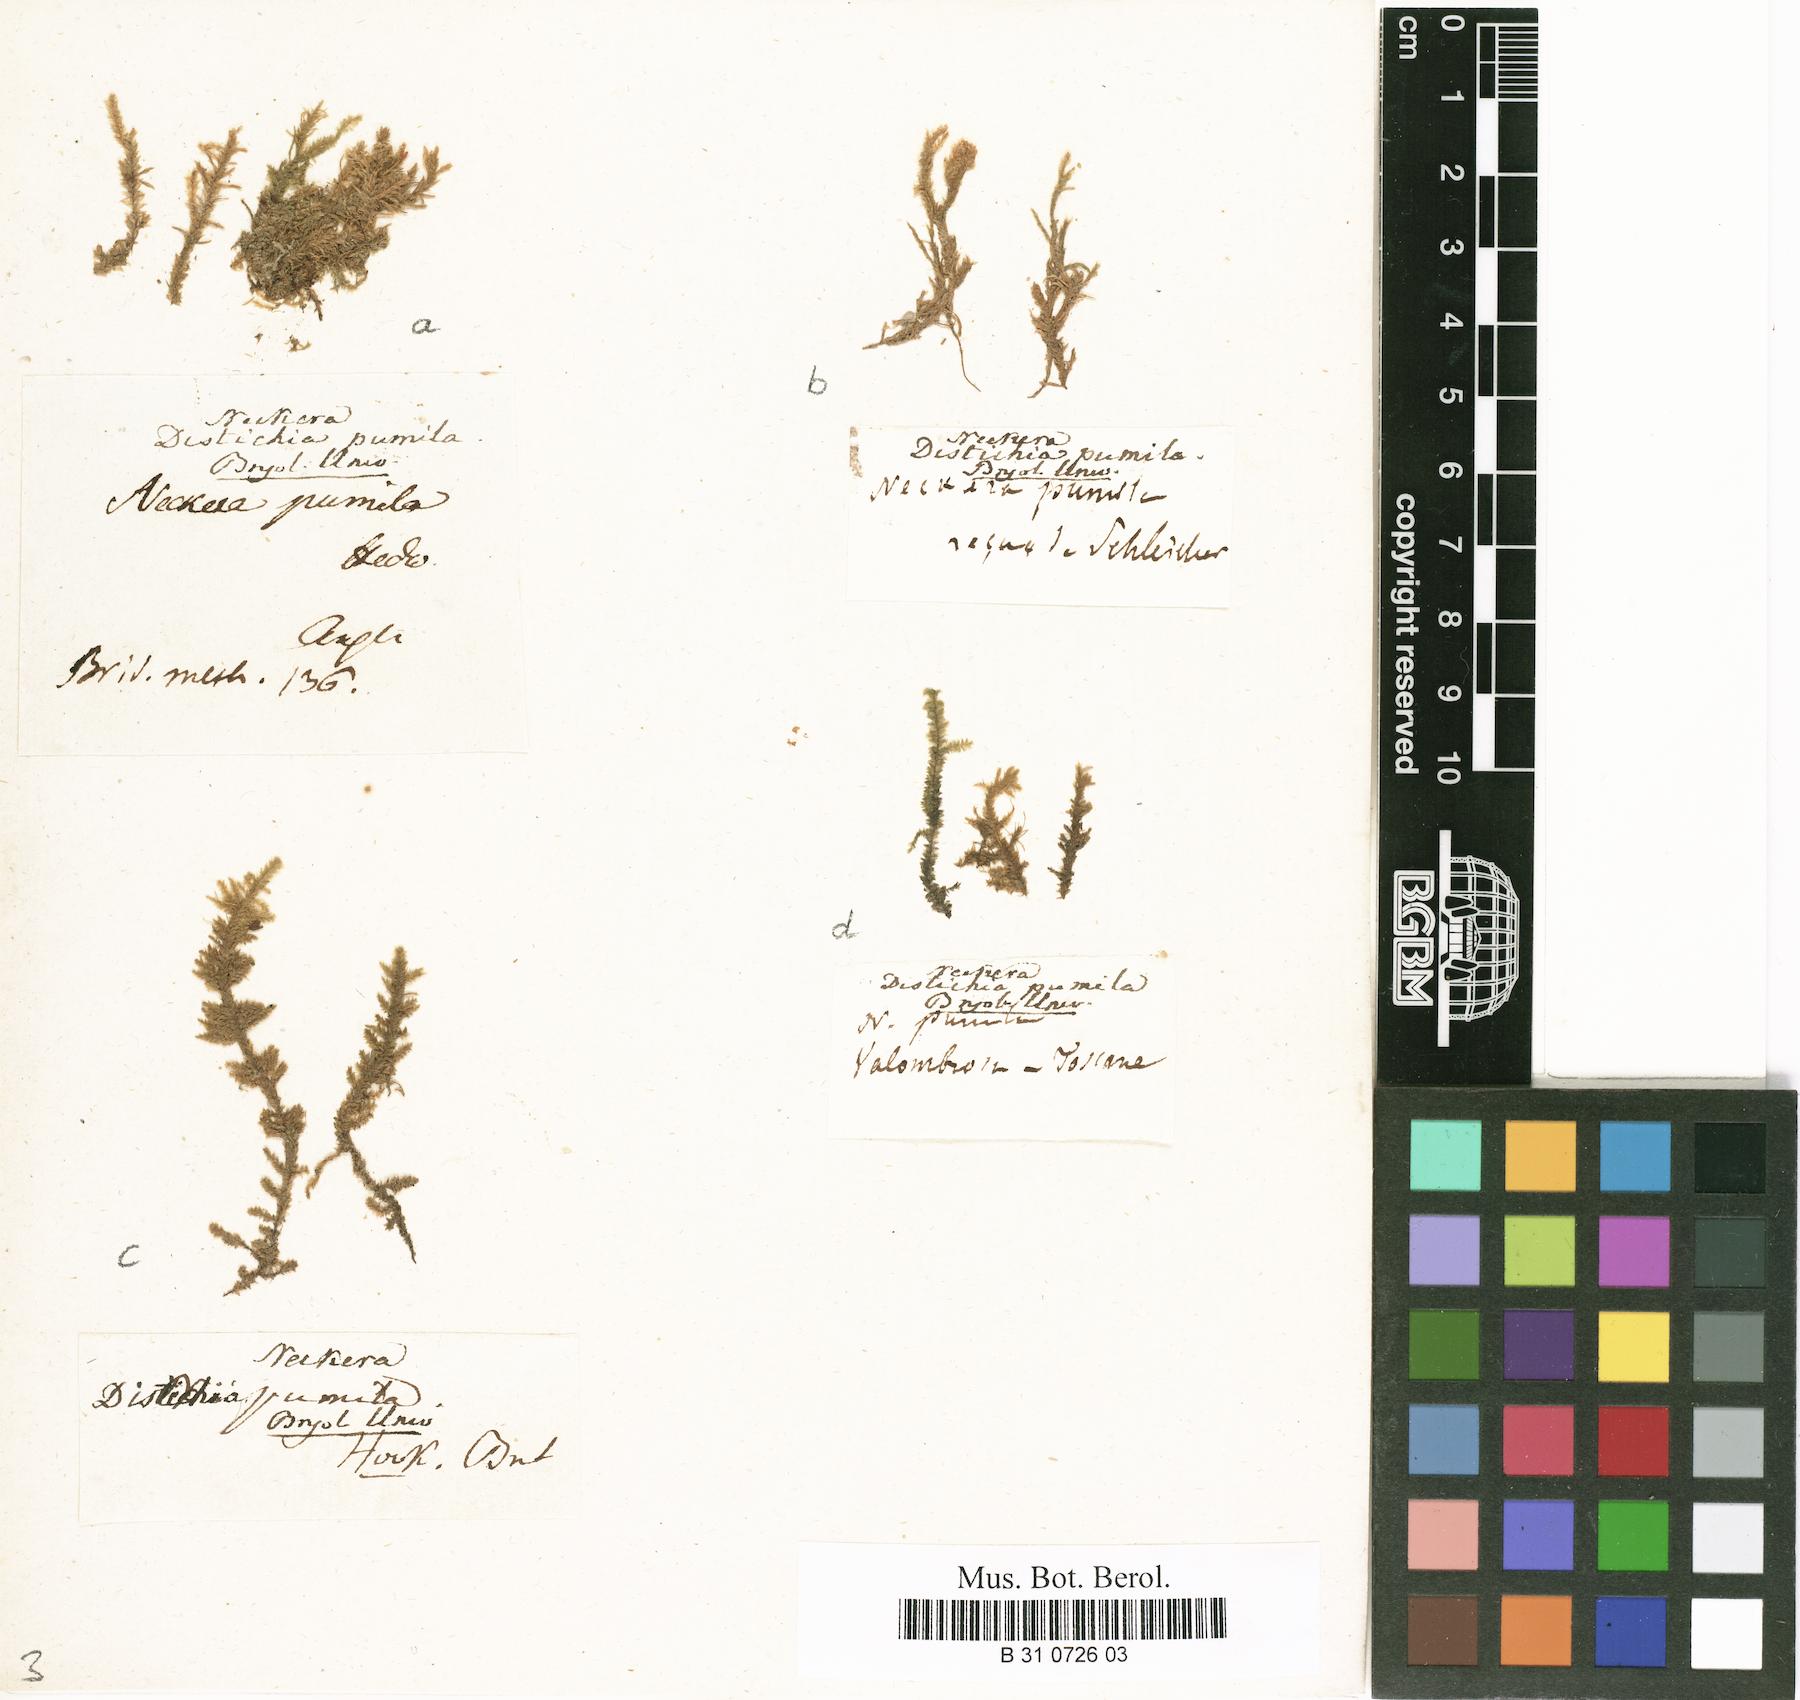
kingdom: Plantae
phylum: Bryophyta
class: Bryopsida
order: Hypnales
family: Neckeraceae
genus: Neckera
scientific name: Neckera pumila
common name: Dwarf neckera
